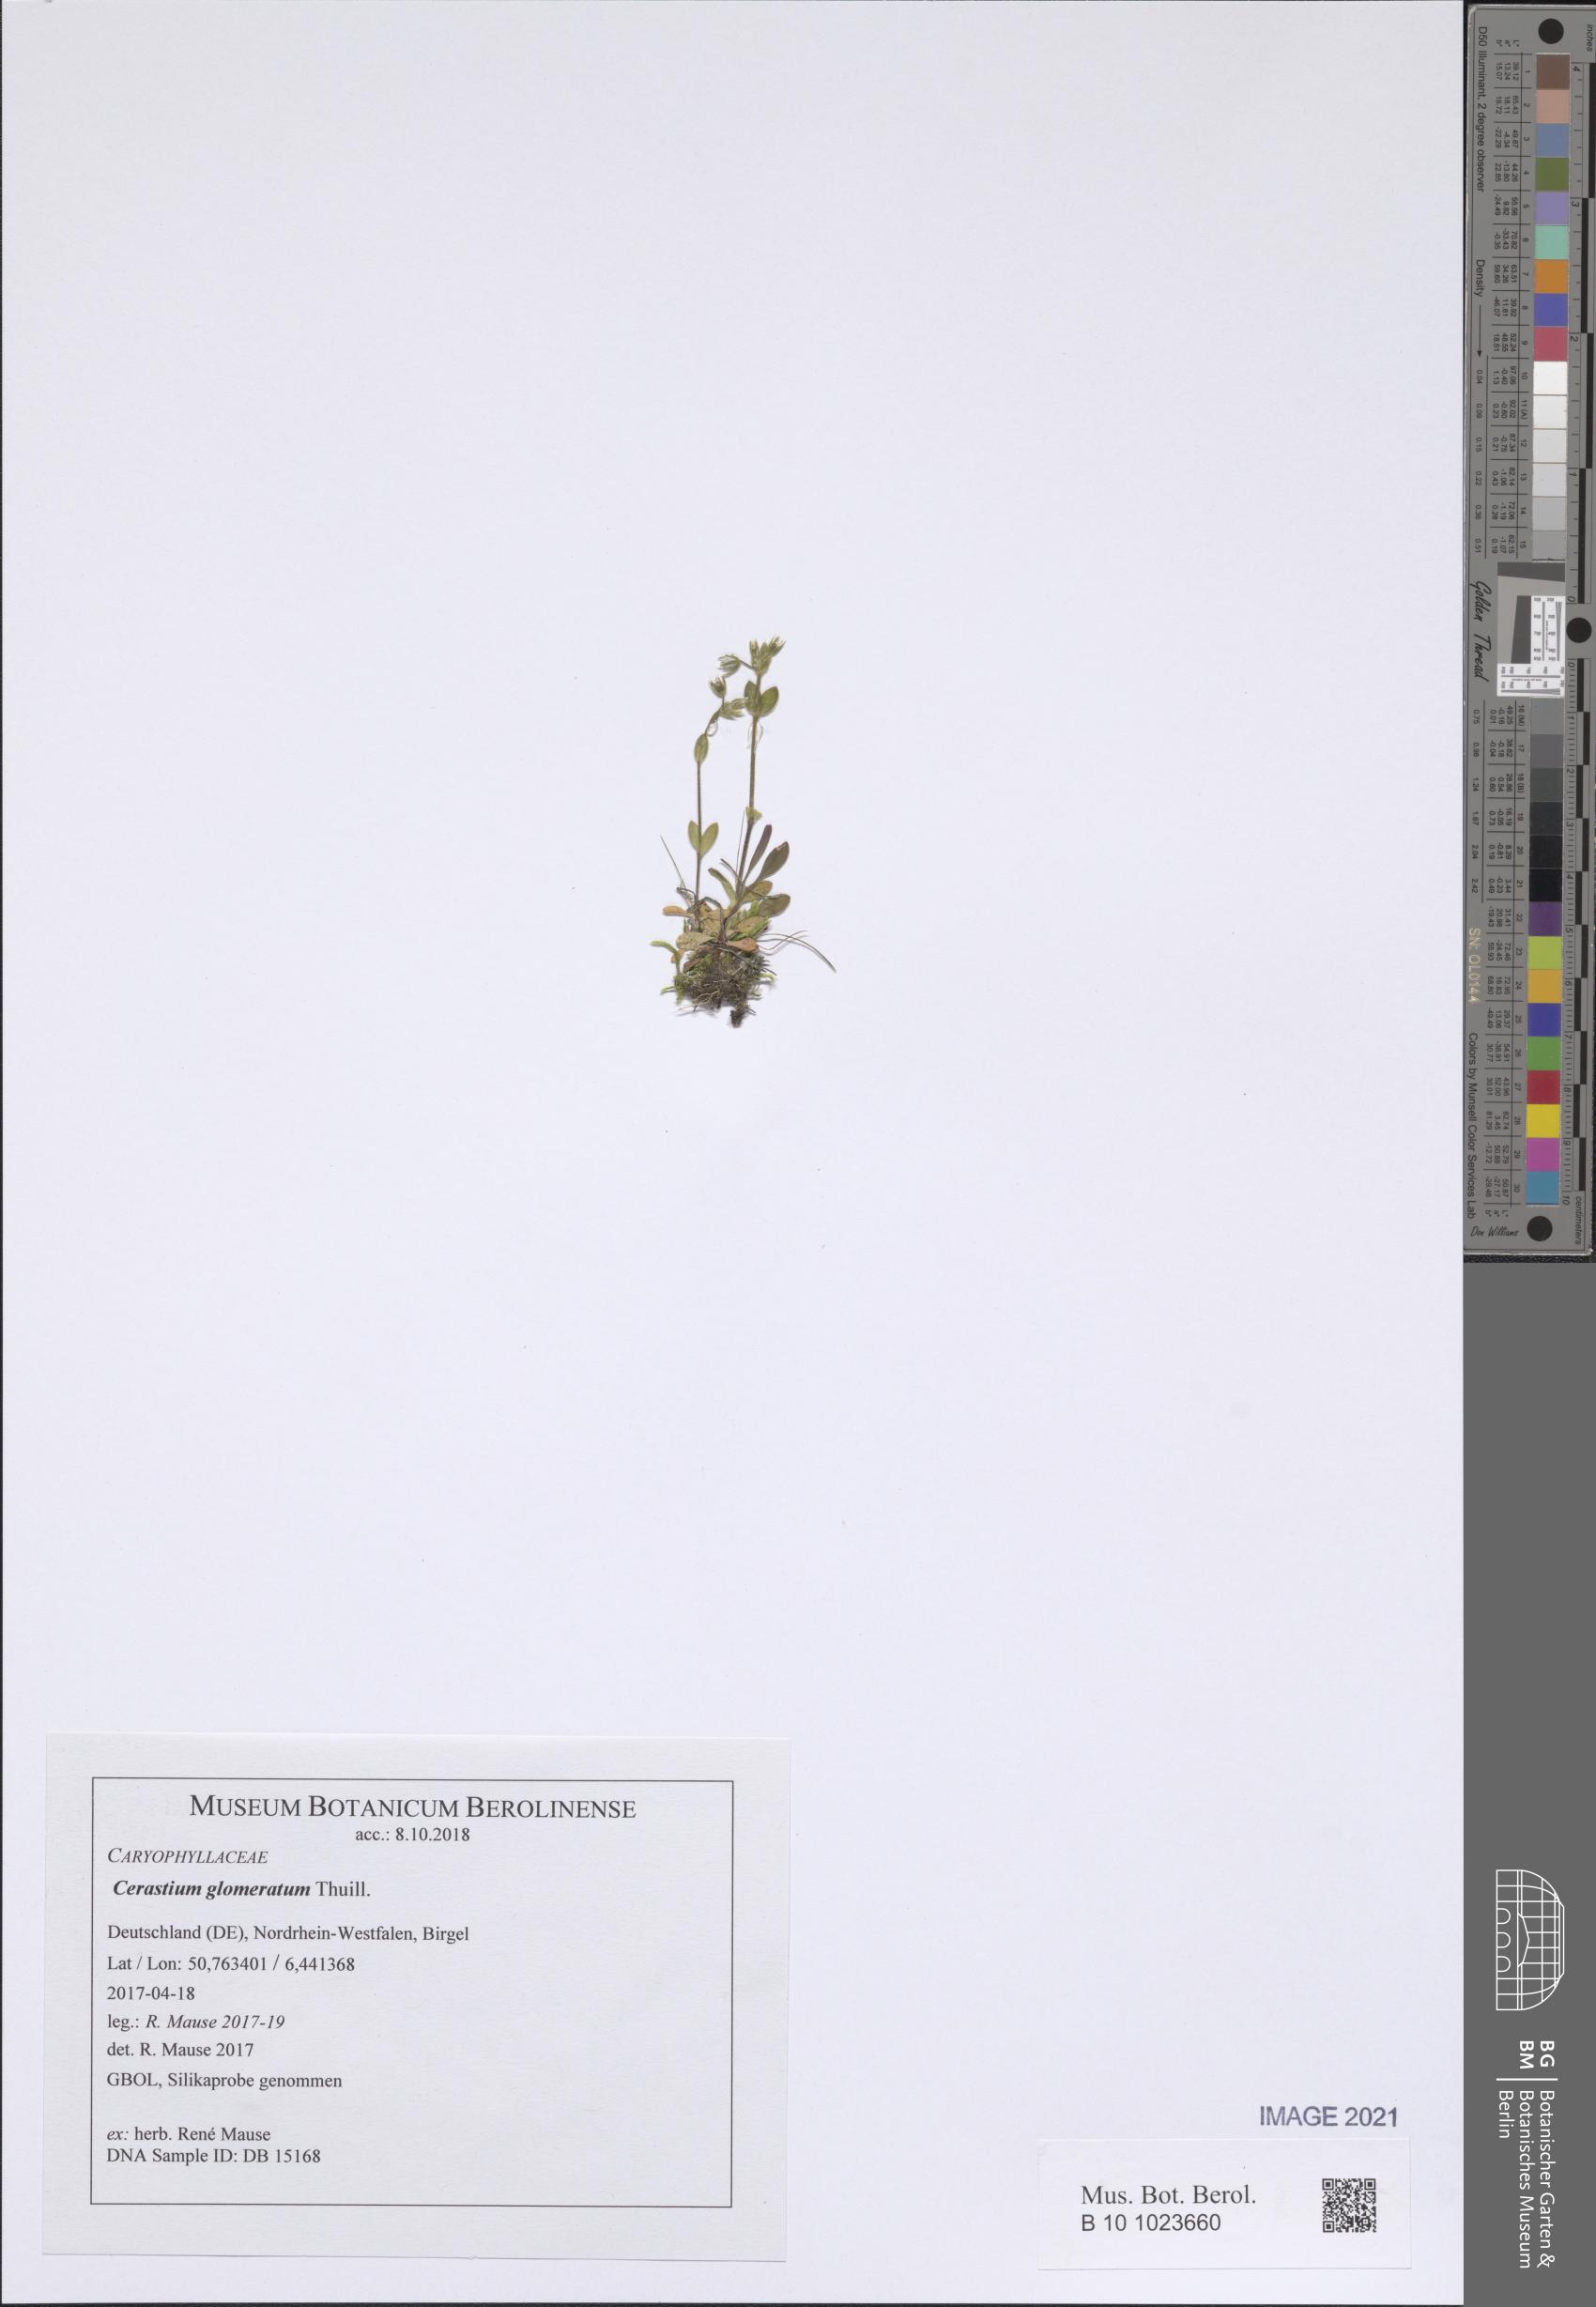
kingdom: Plantae
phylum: Tracheophyta
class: Magnoliopsida
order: Caryophyllales
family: Caryophyllaceae
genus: Cerastium
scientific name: Cerastium glomeratum
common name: Sticky chickweed
